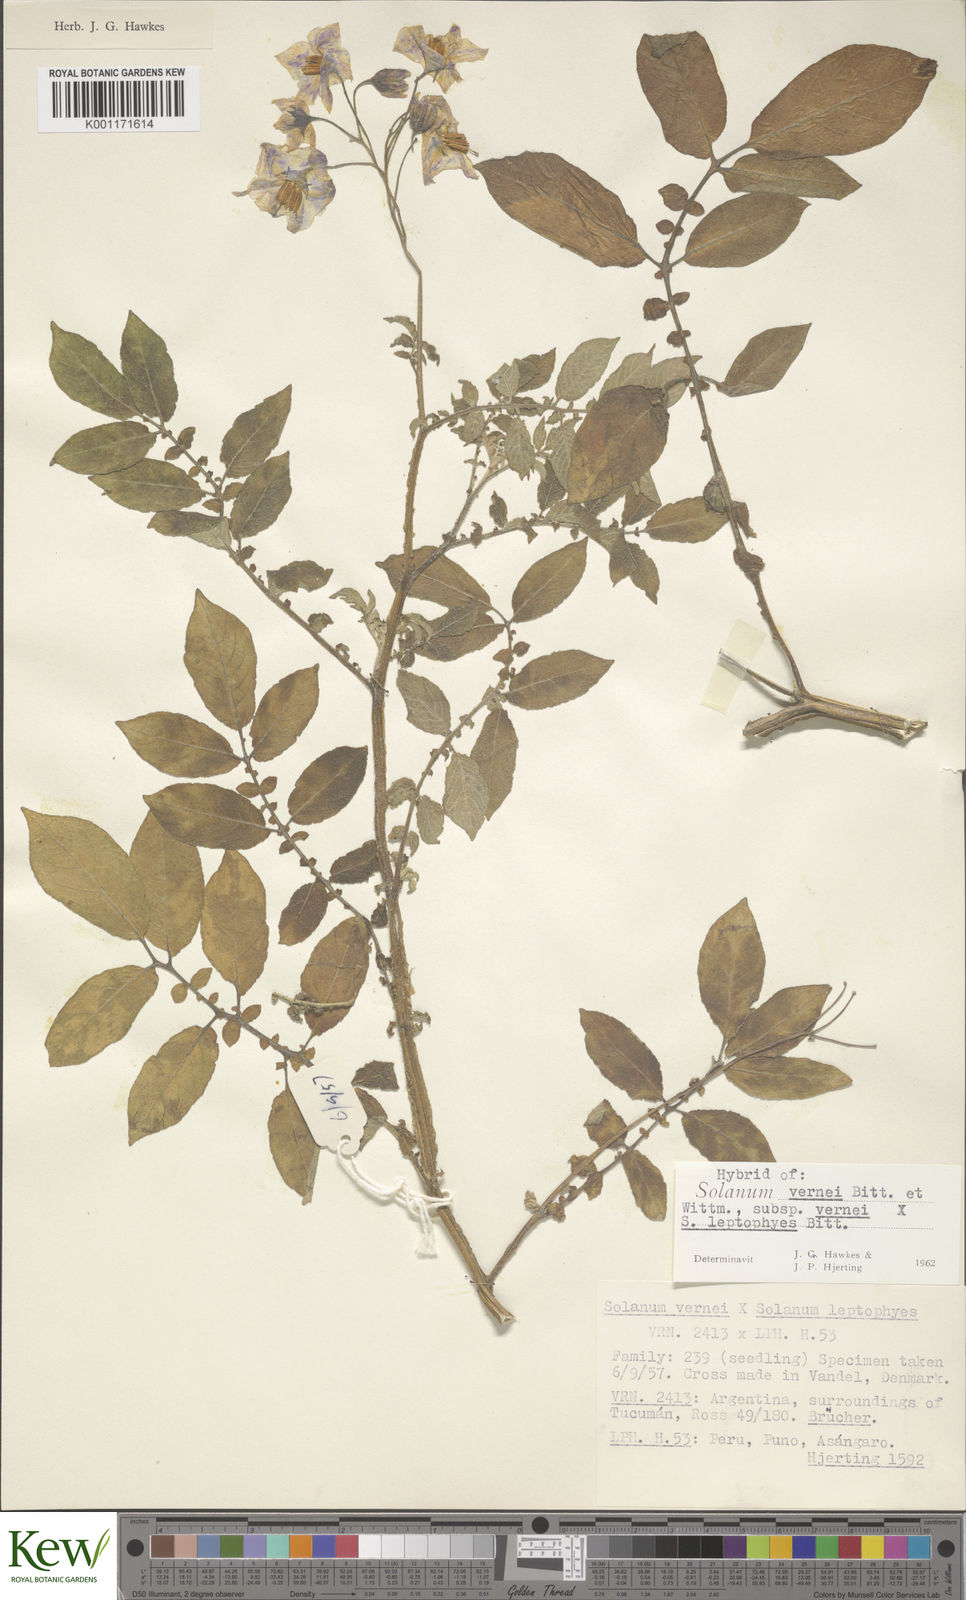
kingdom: Plantae
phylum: Tracheophyta
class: Magnoliopsida
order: Solanales
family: Solanaceae
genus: Solanum
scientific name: Solanum vernei
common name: Purple potato
